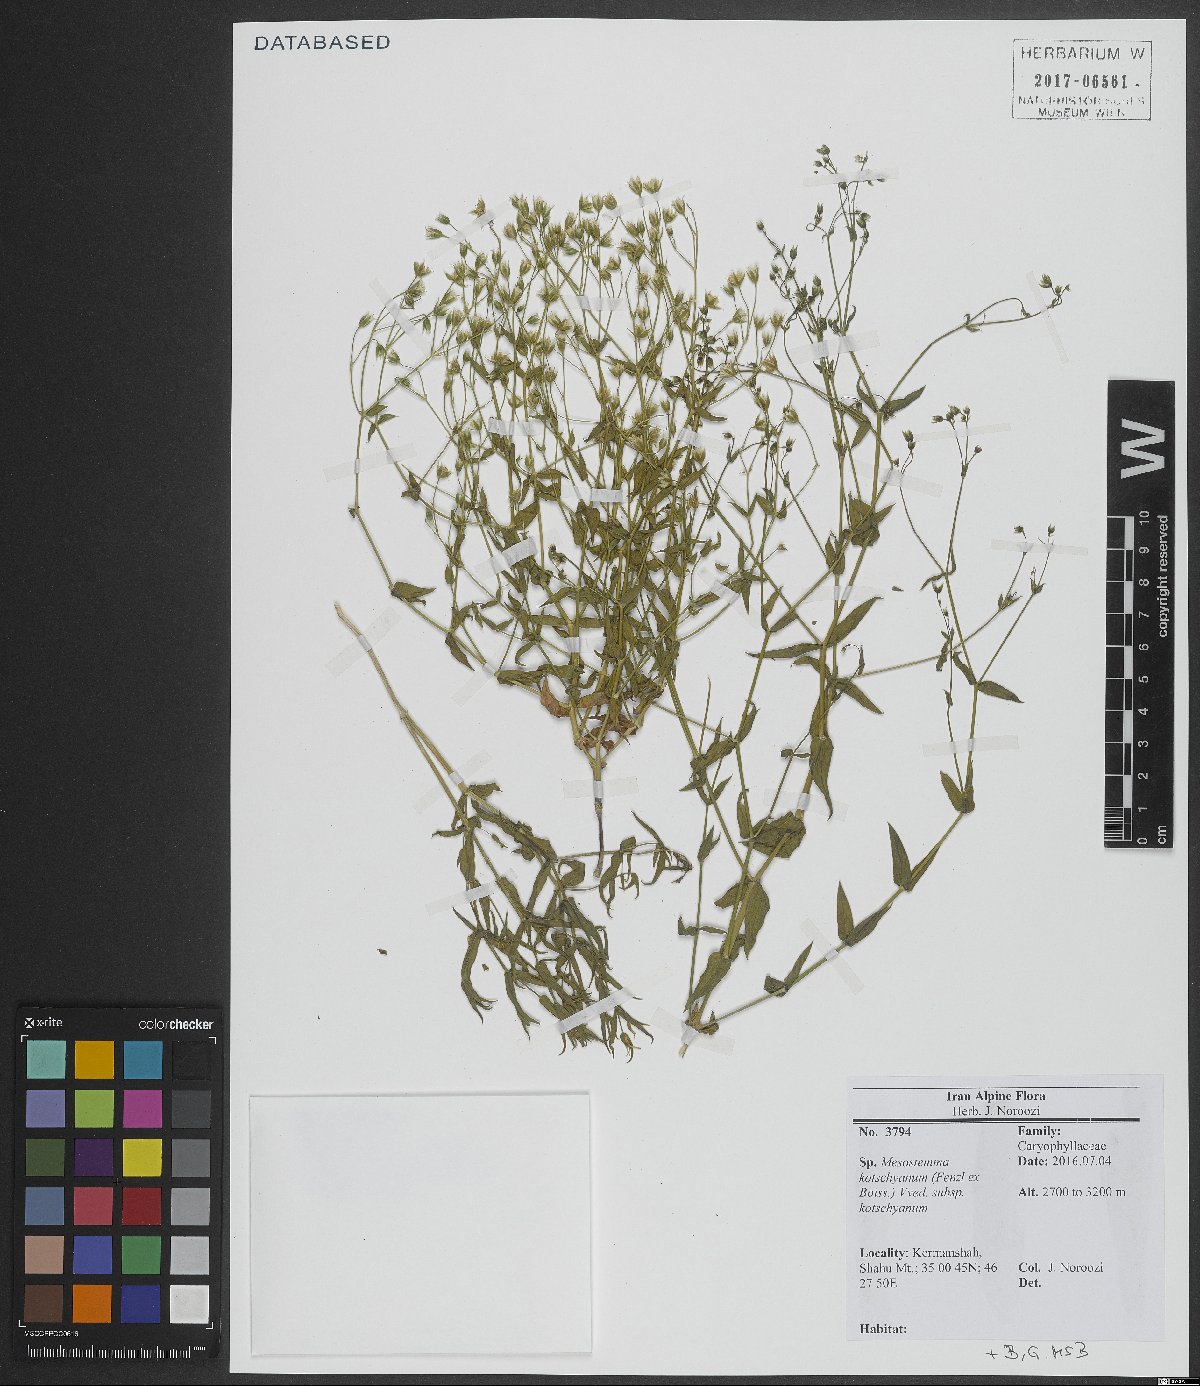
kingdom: Plantae
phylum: Tracheophyta
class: Magnoliopsida
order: Caryophyllales
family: Caryophyllaceae
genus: Mesostemma
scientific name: Mesostemma kotschyanum
